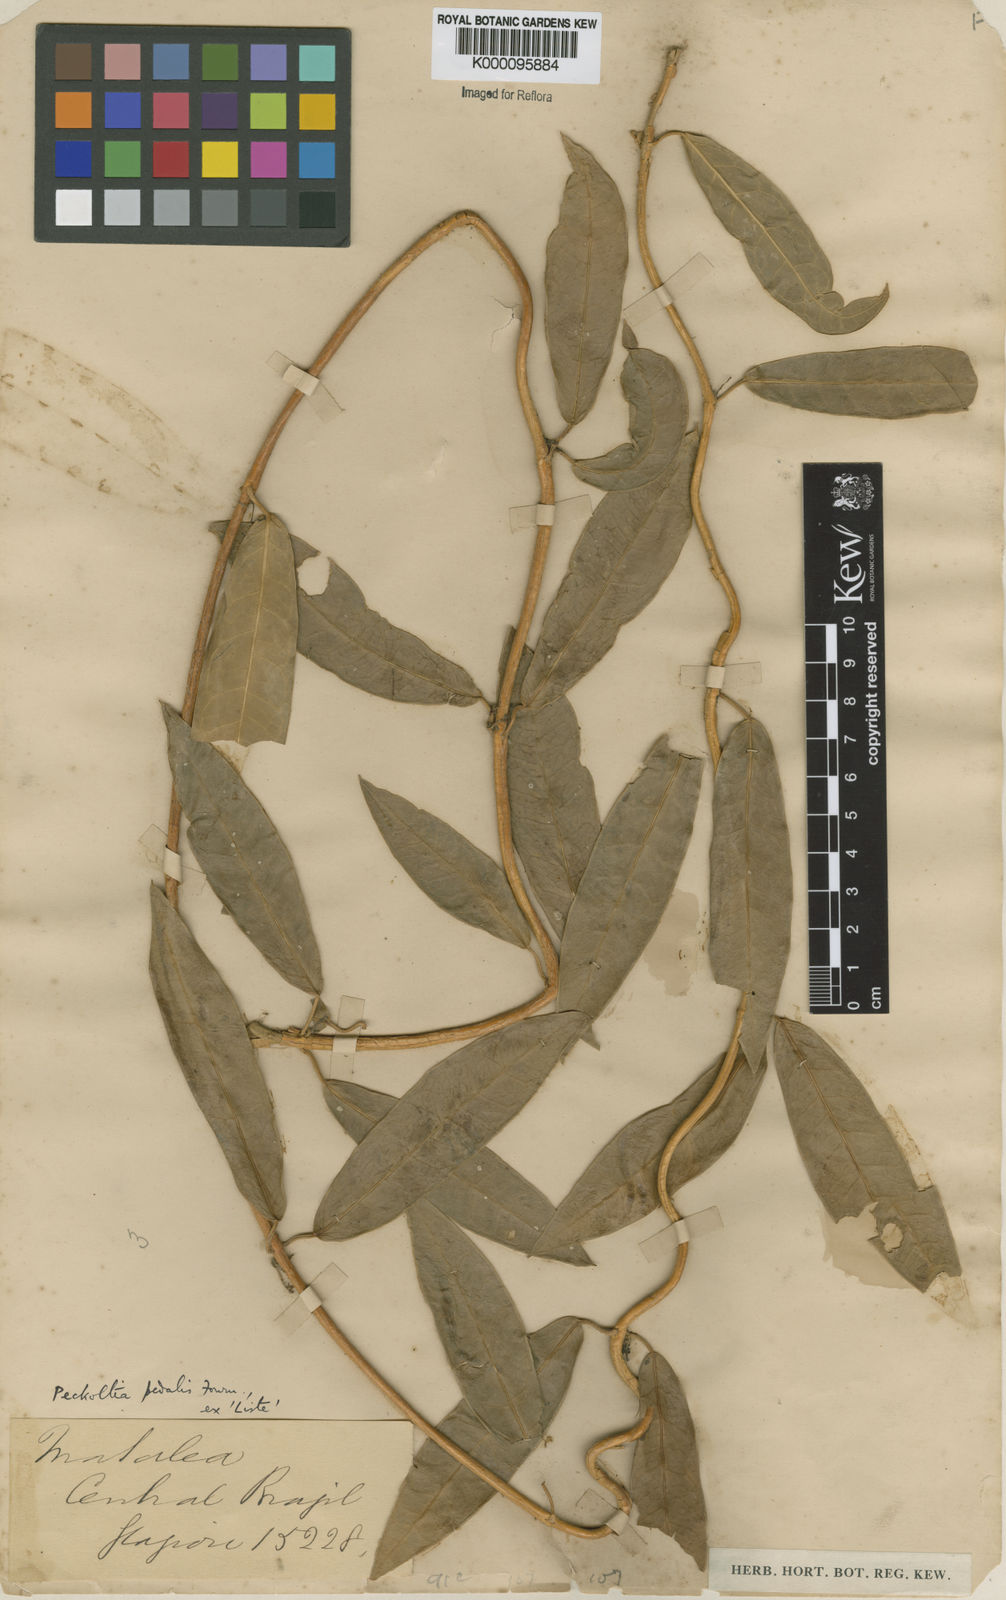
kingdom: Plantae
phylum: Tracheophyta
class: Magnoliopsida
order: Gentianales
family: Apocynaceae
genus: Matelea
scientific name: Matelea pedalis
